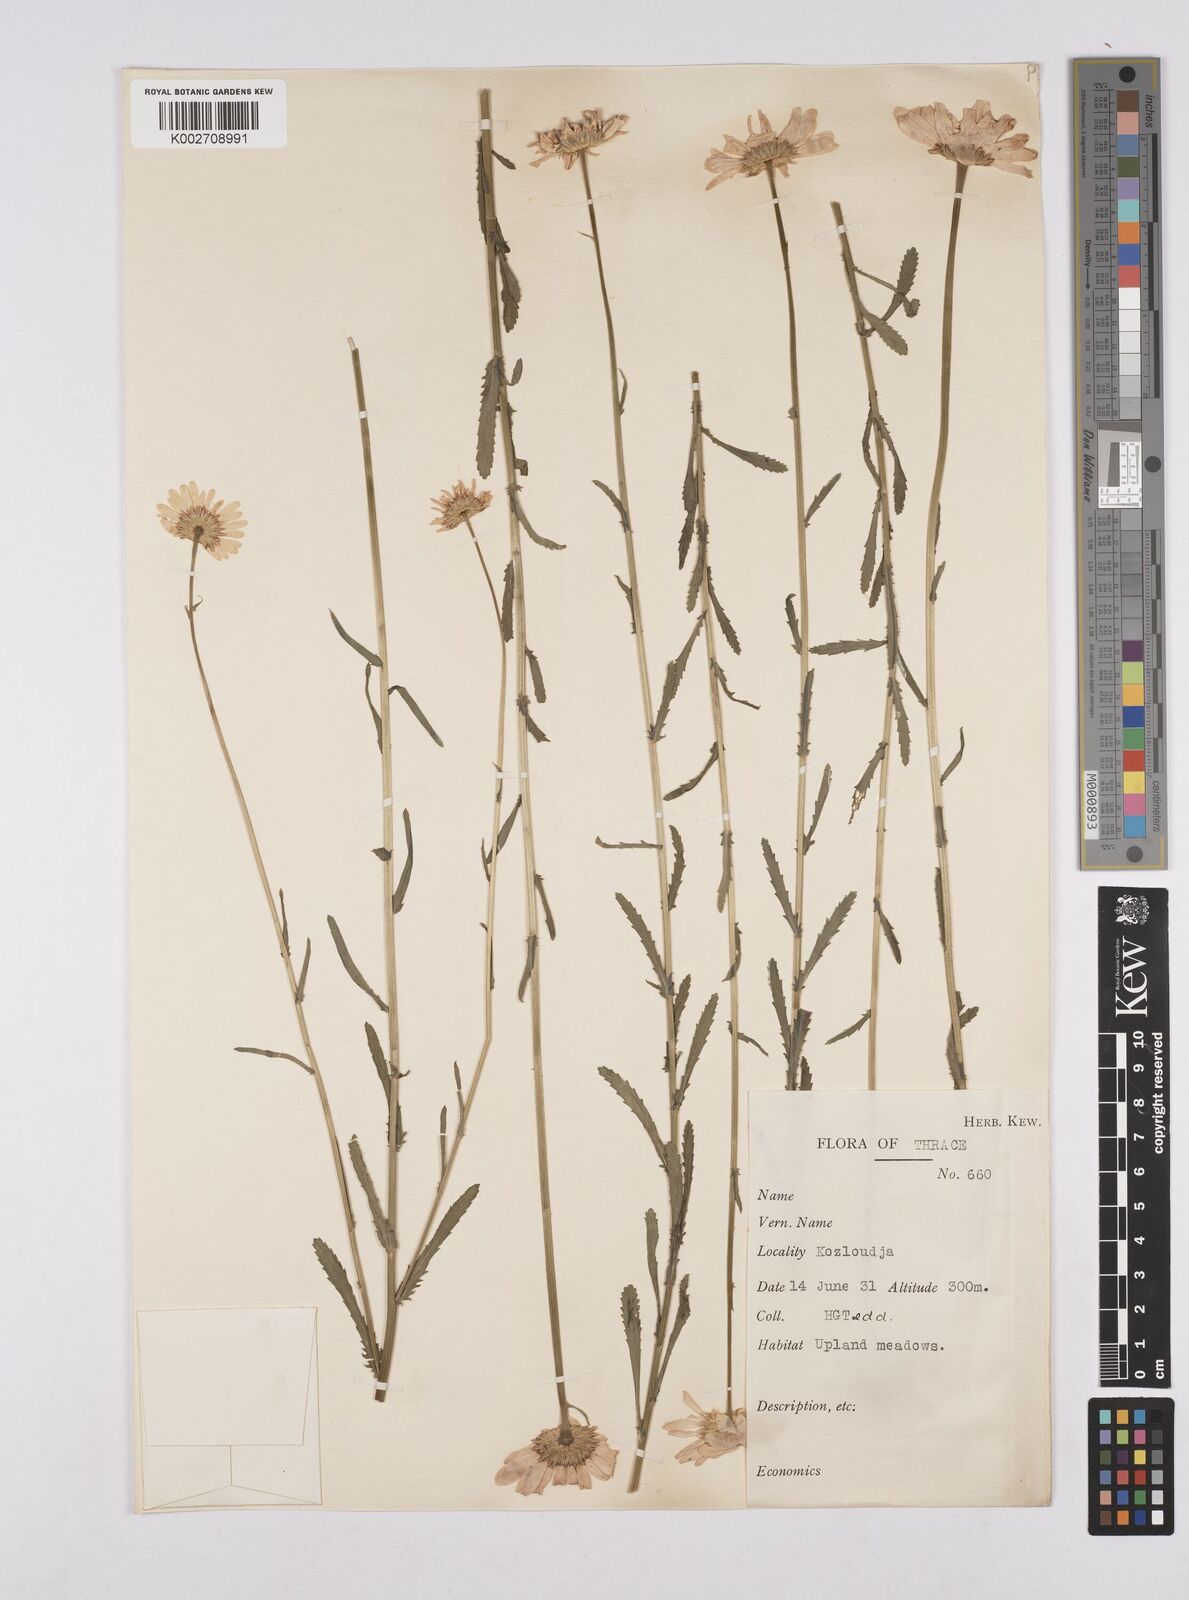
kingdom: Plantae
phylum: Tracheophyta
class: Magnoliopsida
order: Asterales
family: Asteraceae
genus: Leucanthemum
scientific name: Leucanthemum vulgare
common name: Oxeye daisy
